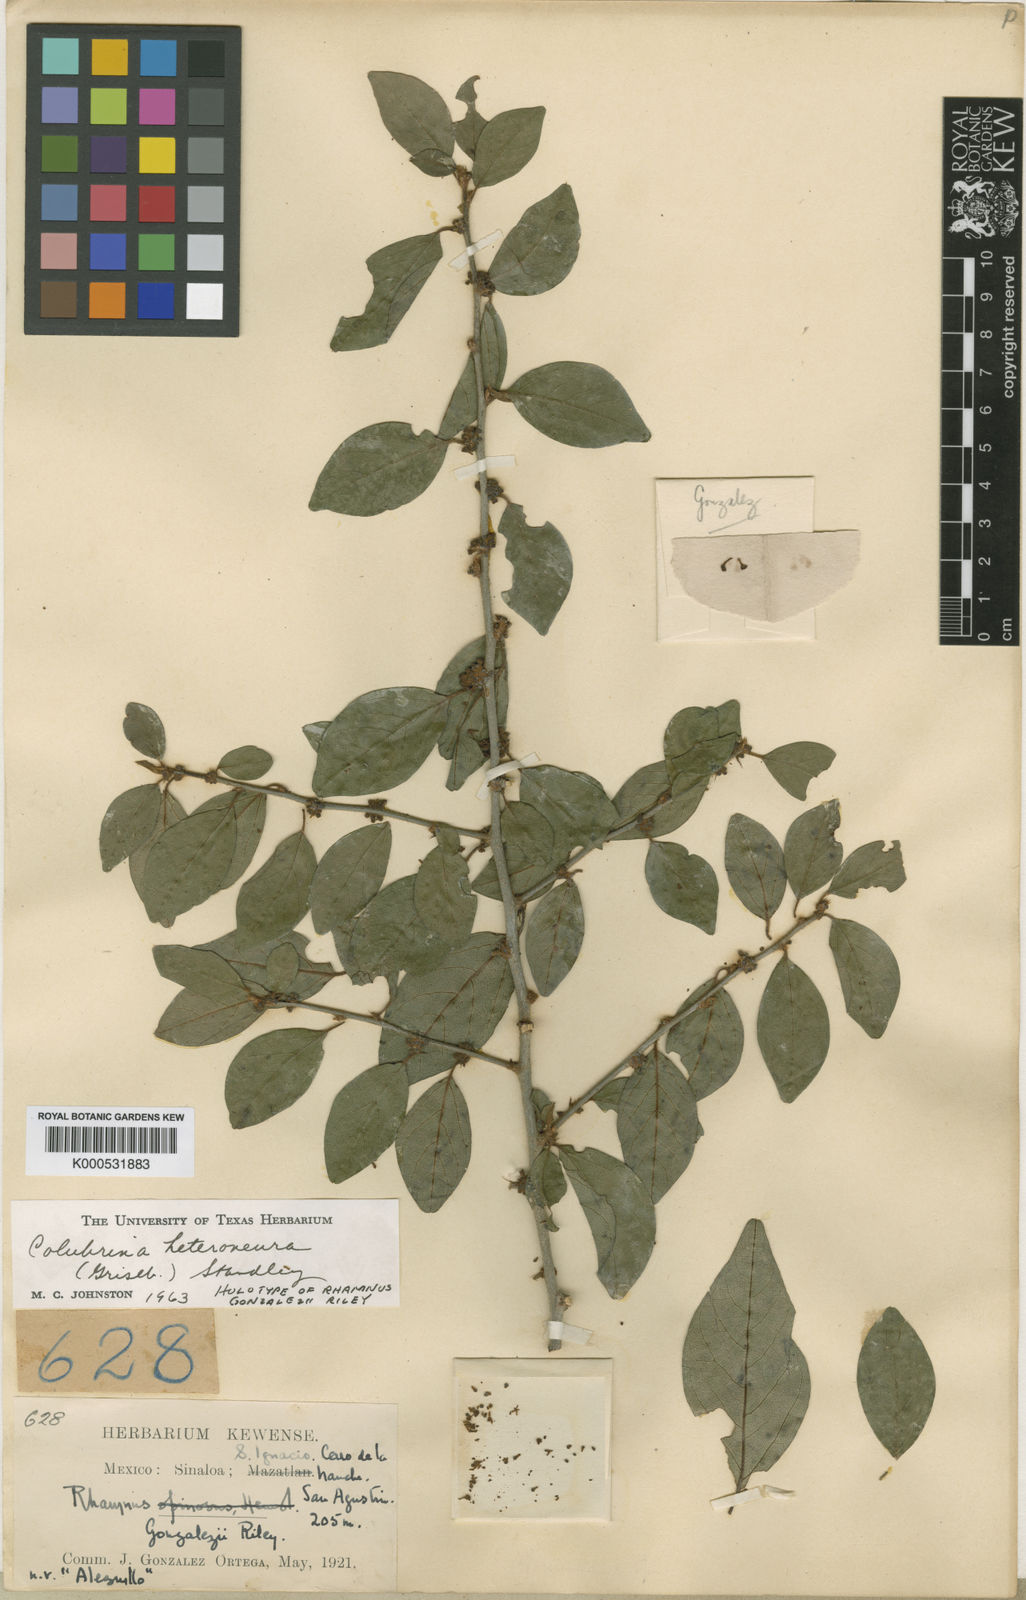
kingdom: Plantae
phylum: Tracheophyta
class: Magnoliopsida
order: Rosales
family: Rhamnaceae
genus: Colubrina
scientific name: Colubrina heteroneura
